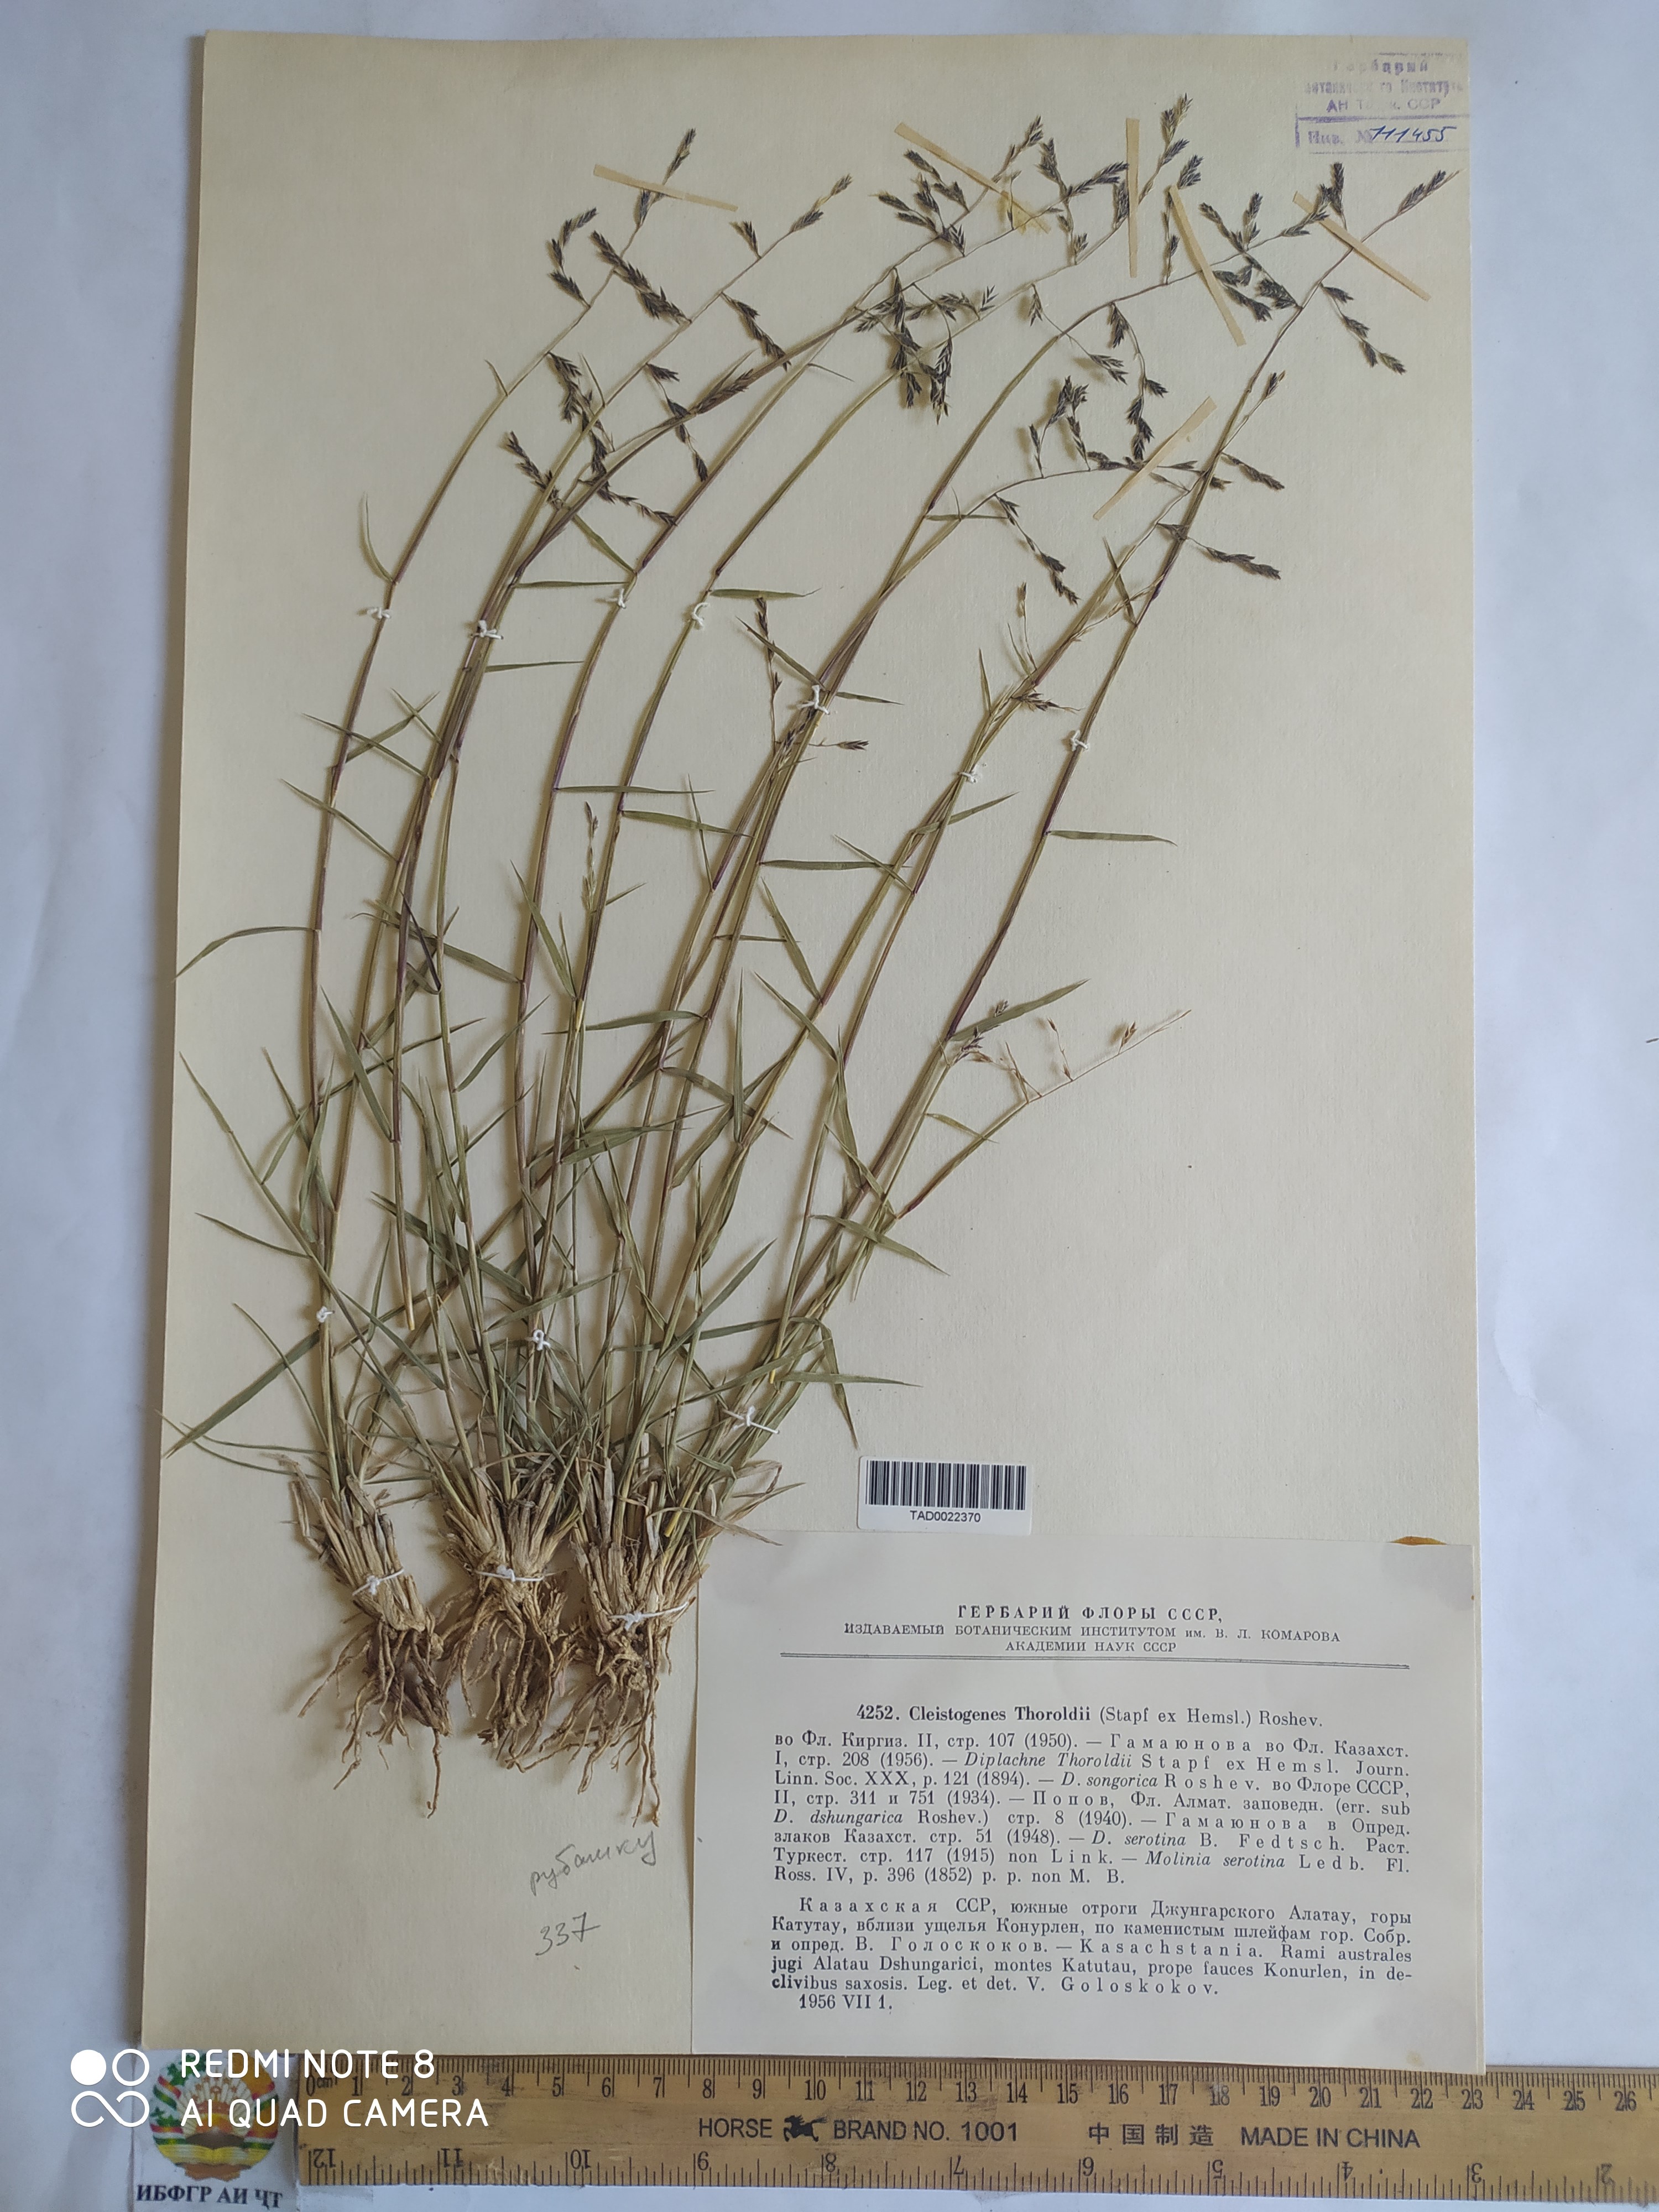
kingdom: Plantae
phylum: Tracheophyta
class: Liliopsida
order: Poales
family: Poaceae
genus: Orinus
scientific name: Orinus thoroldii
